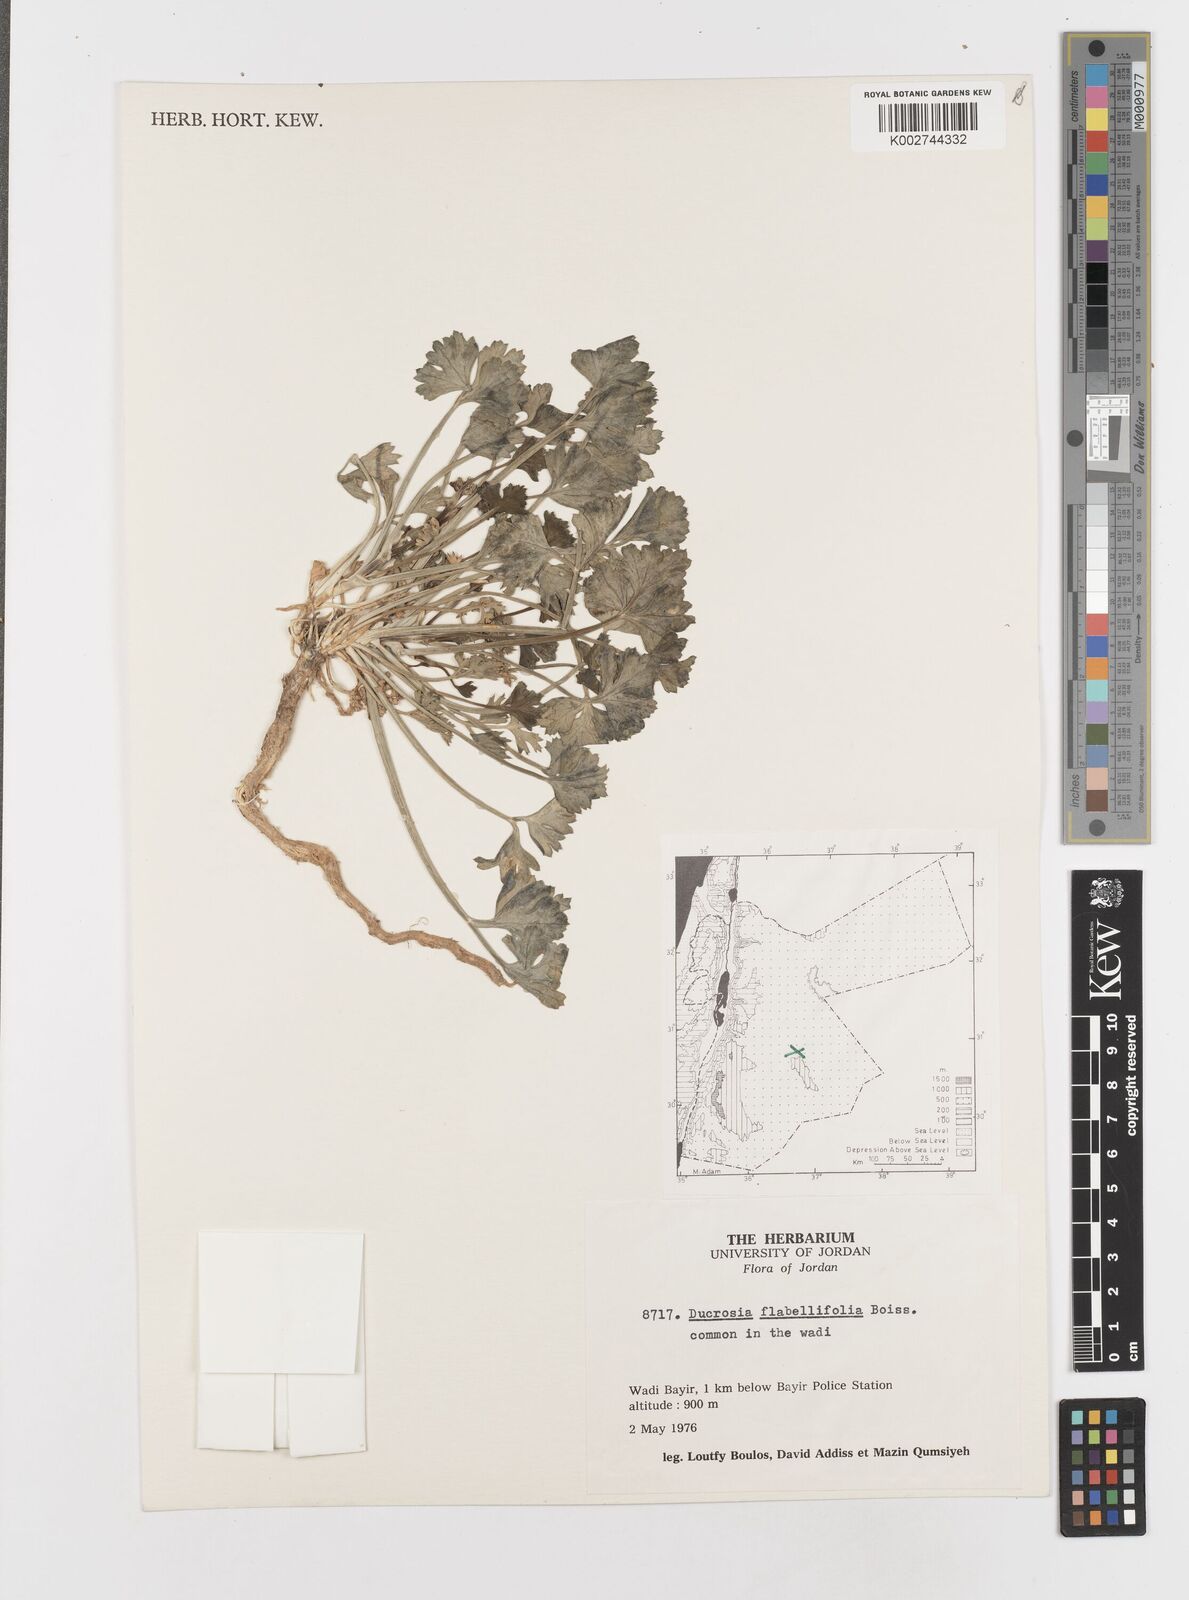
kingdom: Plantae
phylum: Tracheophyta
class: Magnoliopsida
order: Apiales
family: Apiaceae
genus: Ducrosia
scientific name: Ducrosia flabellifolia
